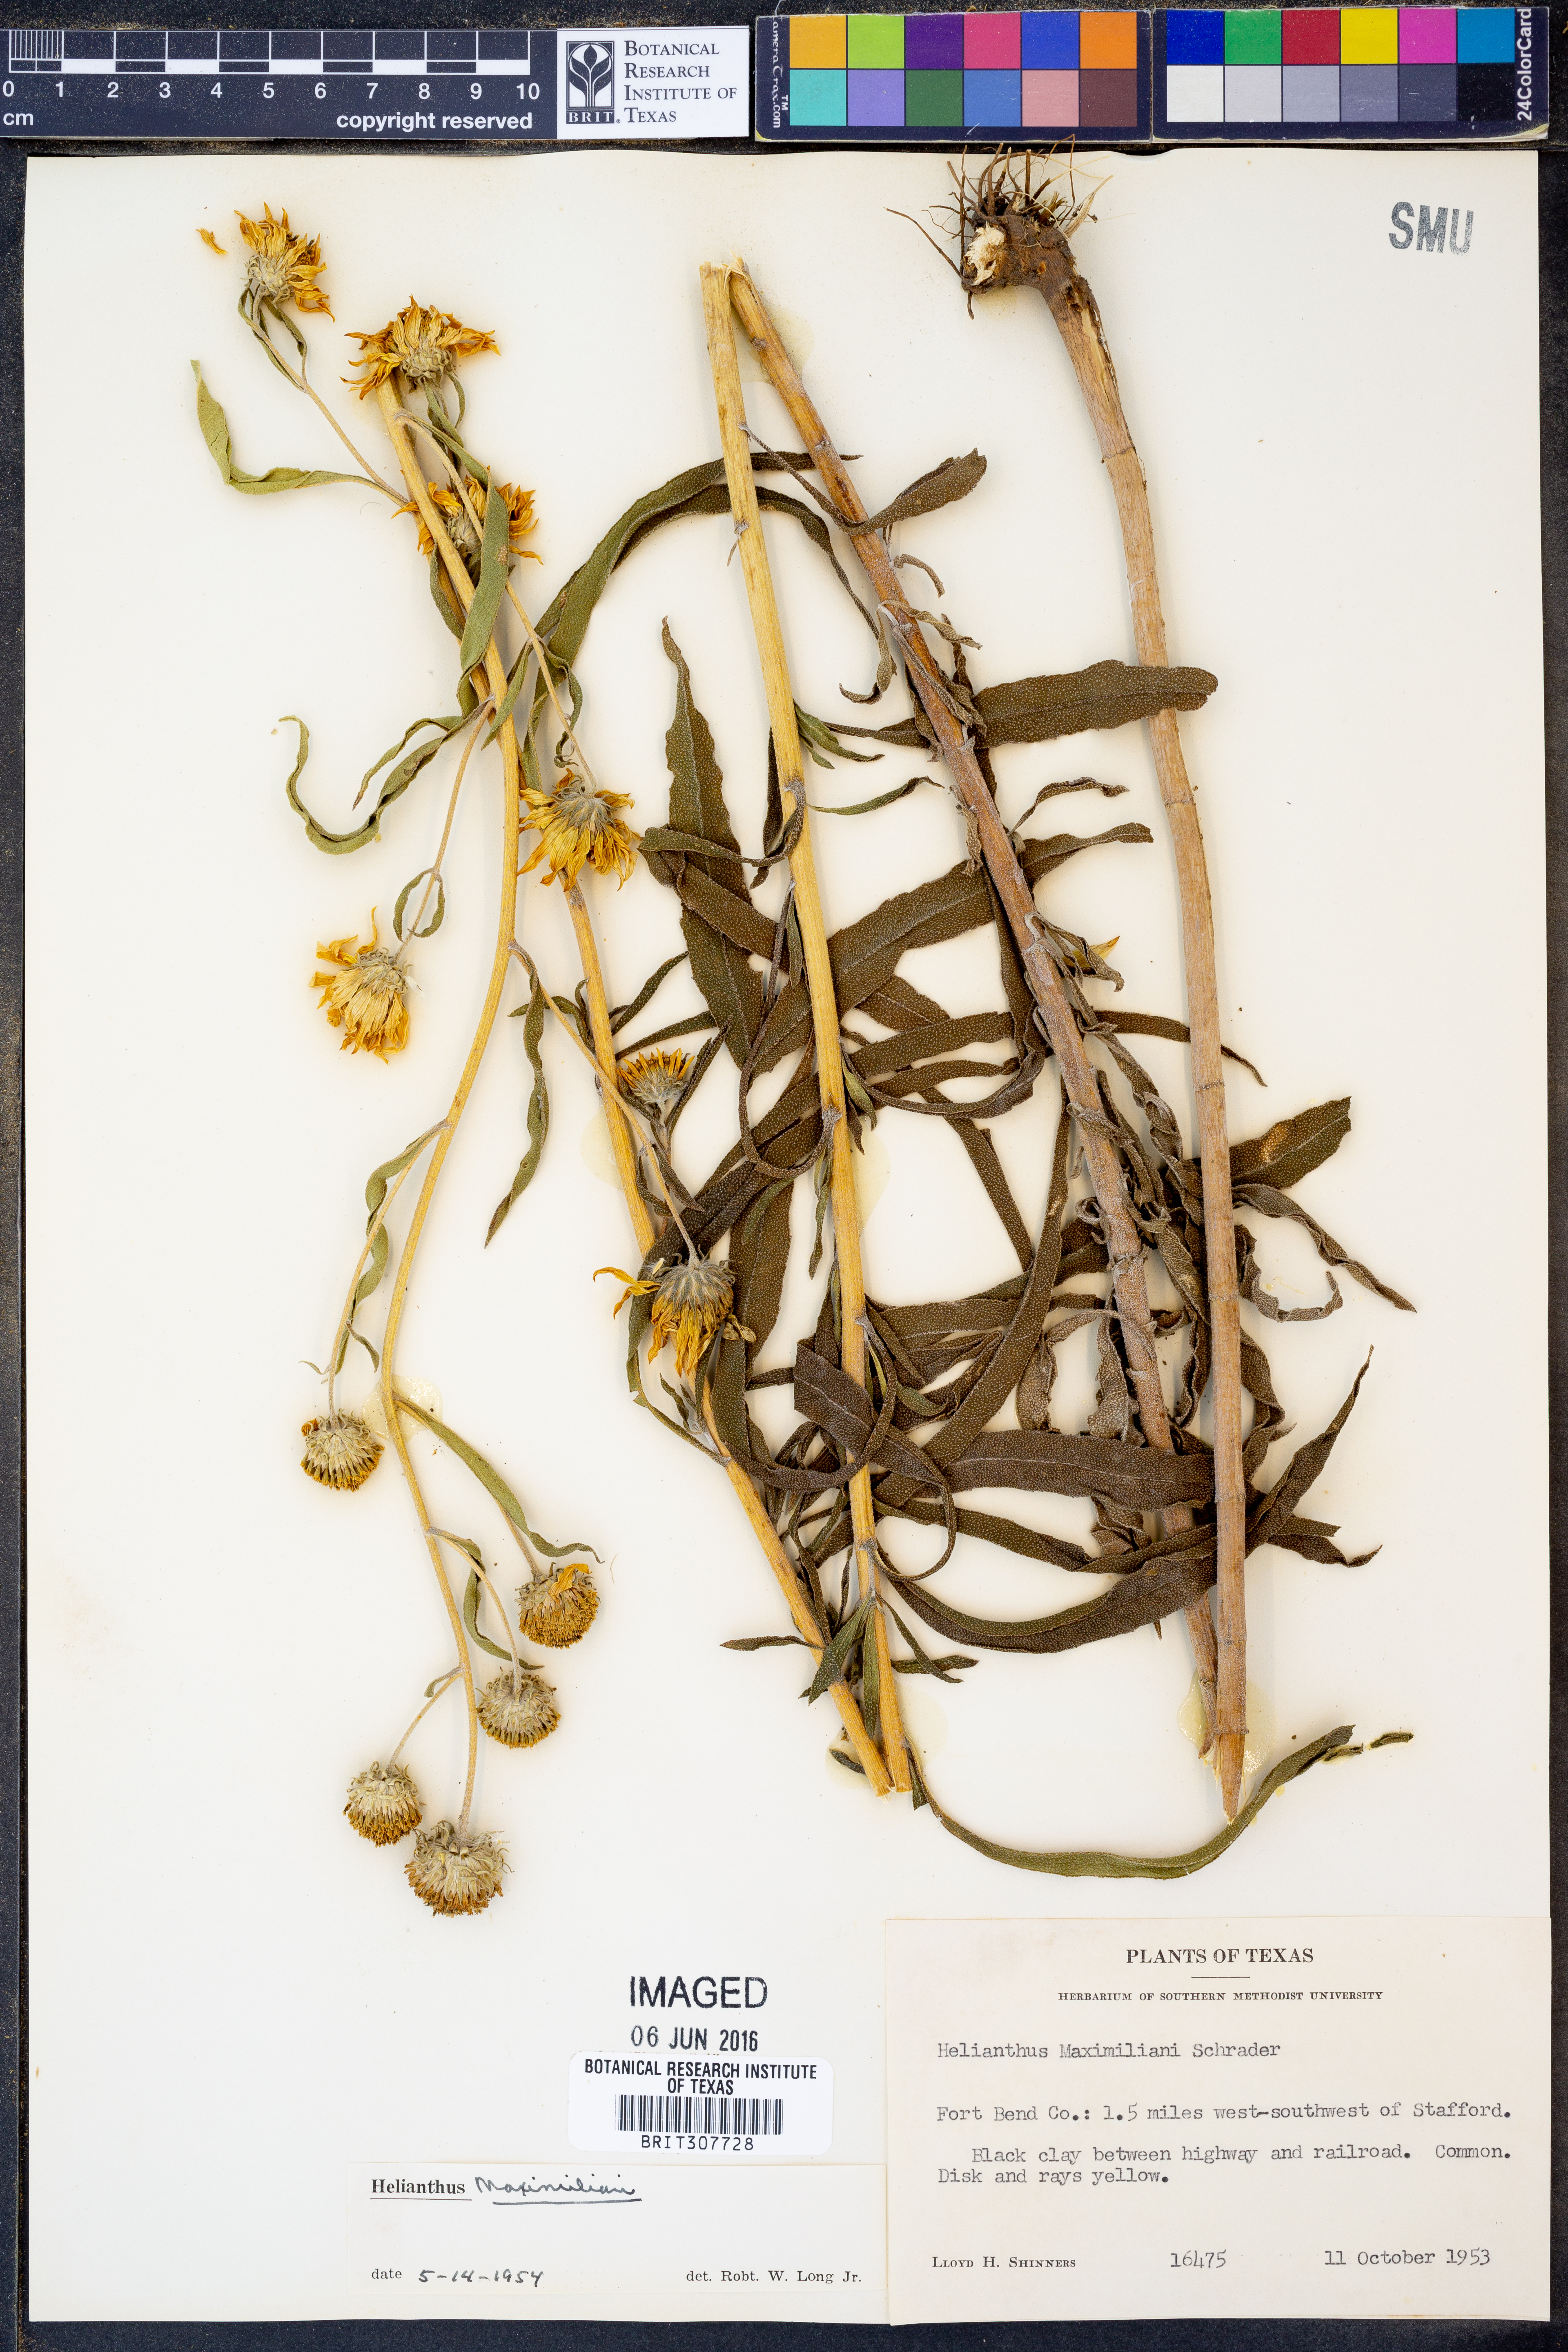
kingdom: Plantae
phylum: Tracheophyta
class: Magnoliopsida
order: Asterales
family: Asteraceae
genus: Helianthus
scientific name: Helianthus maximiliani
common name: Maximilian's sunflower
